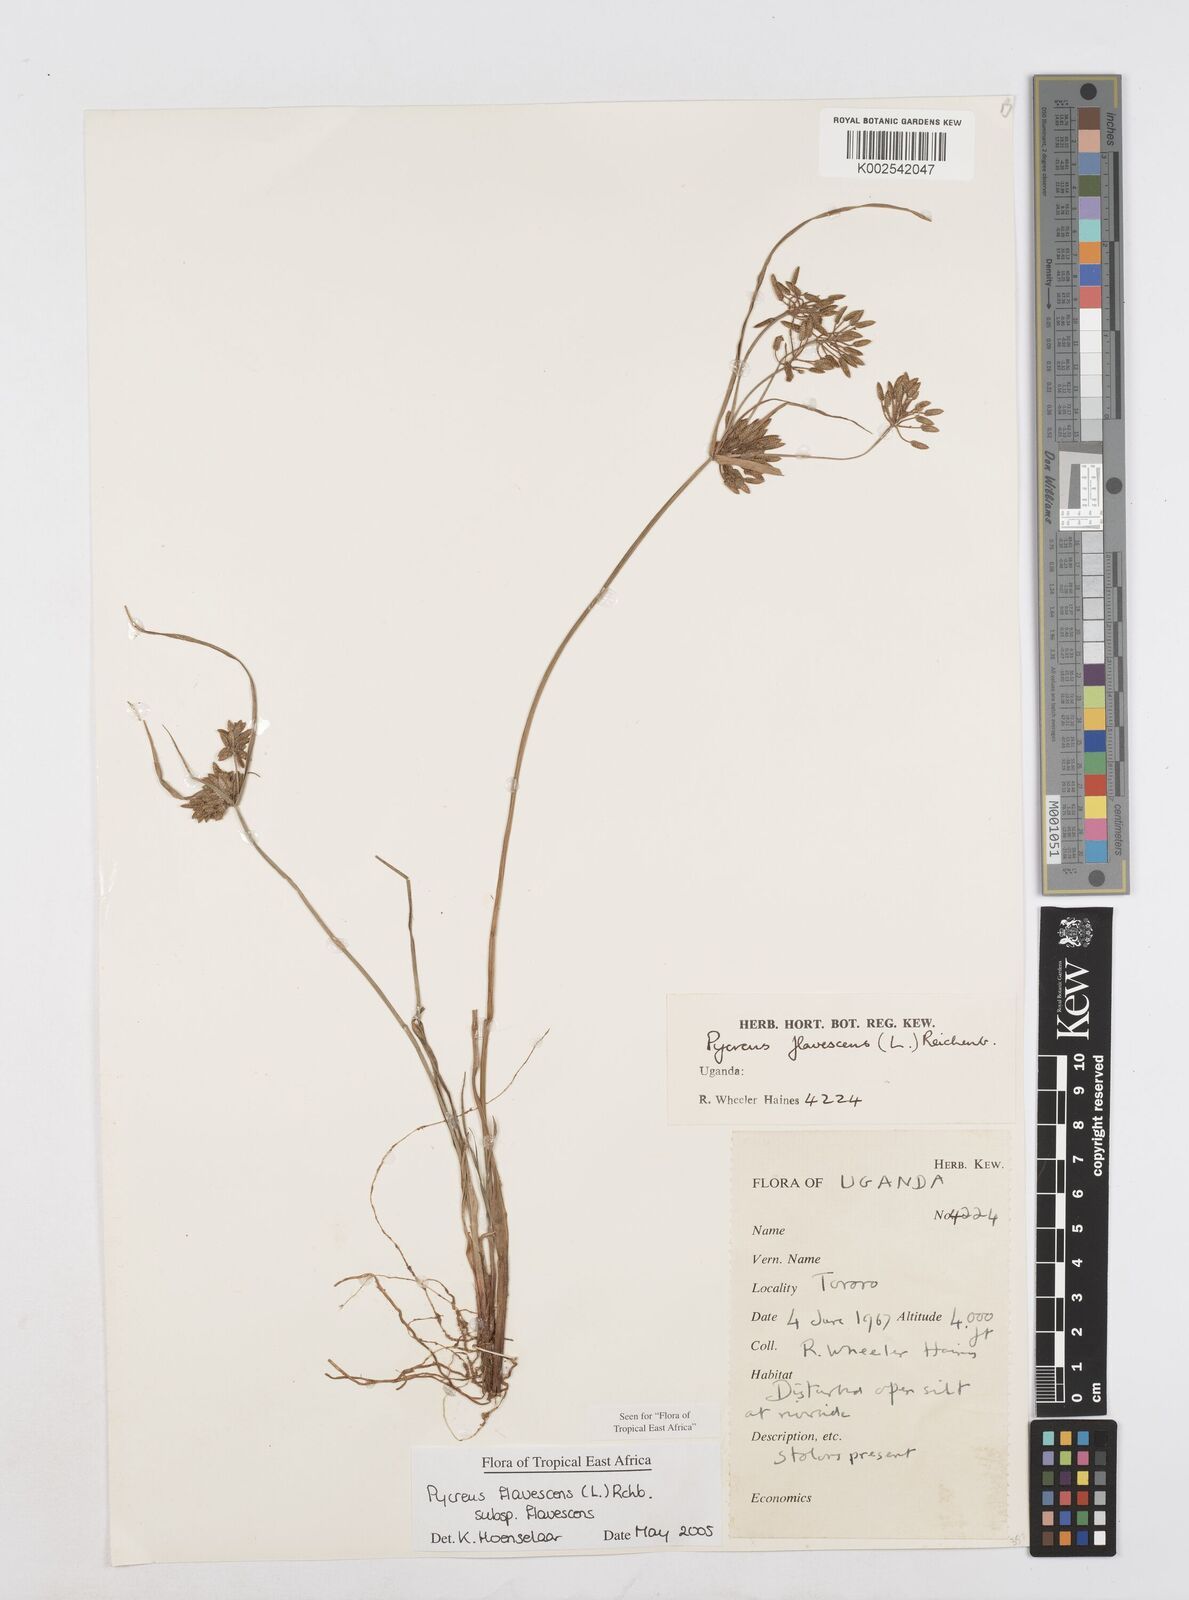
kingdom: Plantae
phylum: Tracheophyta
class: Liliopsida
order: Poales
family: Cyperaceae
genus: Cyperus
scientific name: Cyperus flavescens
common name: Yellow galingale
